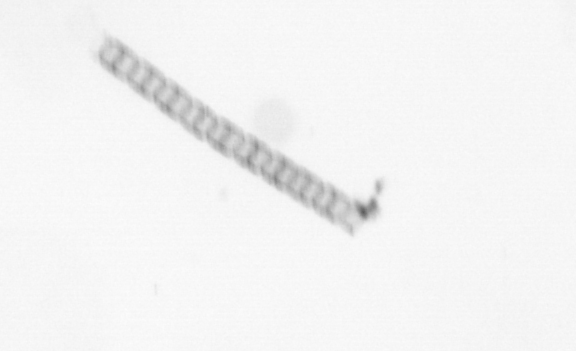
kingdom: Chromista
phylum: Ochrophyta
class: Bacillariophyceae
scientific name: Bacillariophyceae
